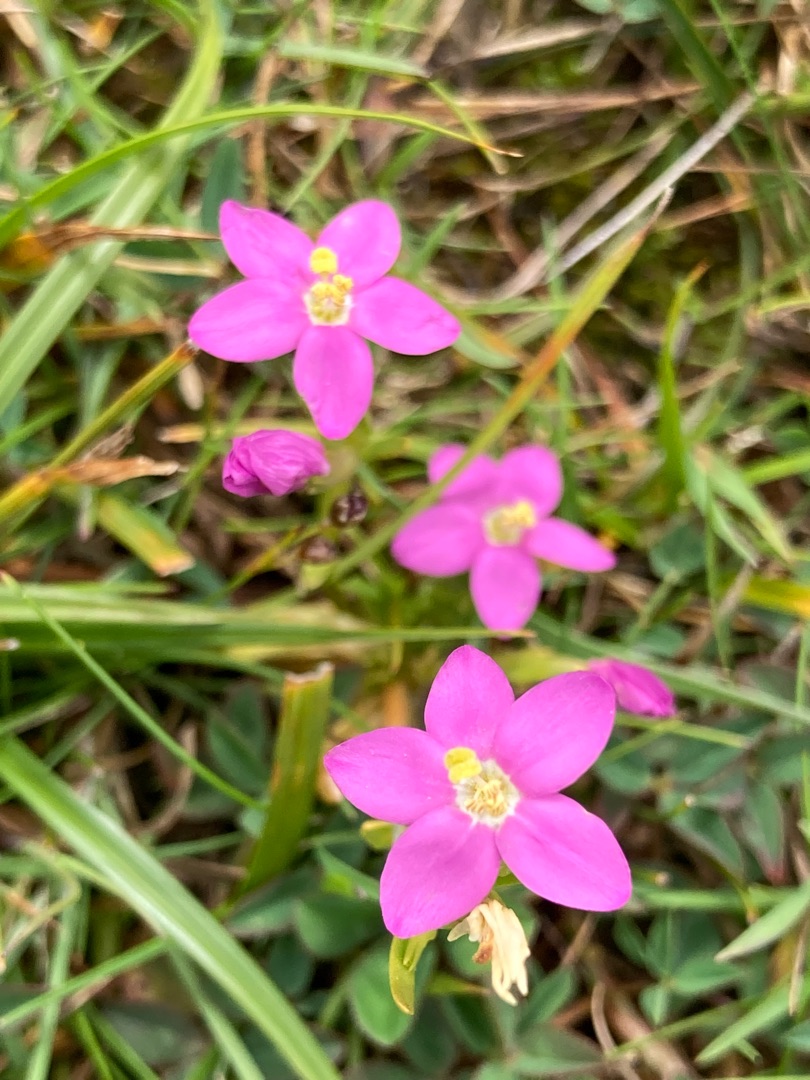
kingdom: Plantae
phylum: Tracheophyta
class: Magnoliopsida
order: Gentianales
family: Gentianaceae
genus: Centaurium
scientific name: Centaurium littorale
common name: Strand-tusindgylden
